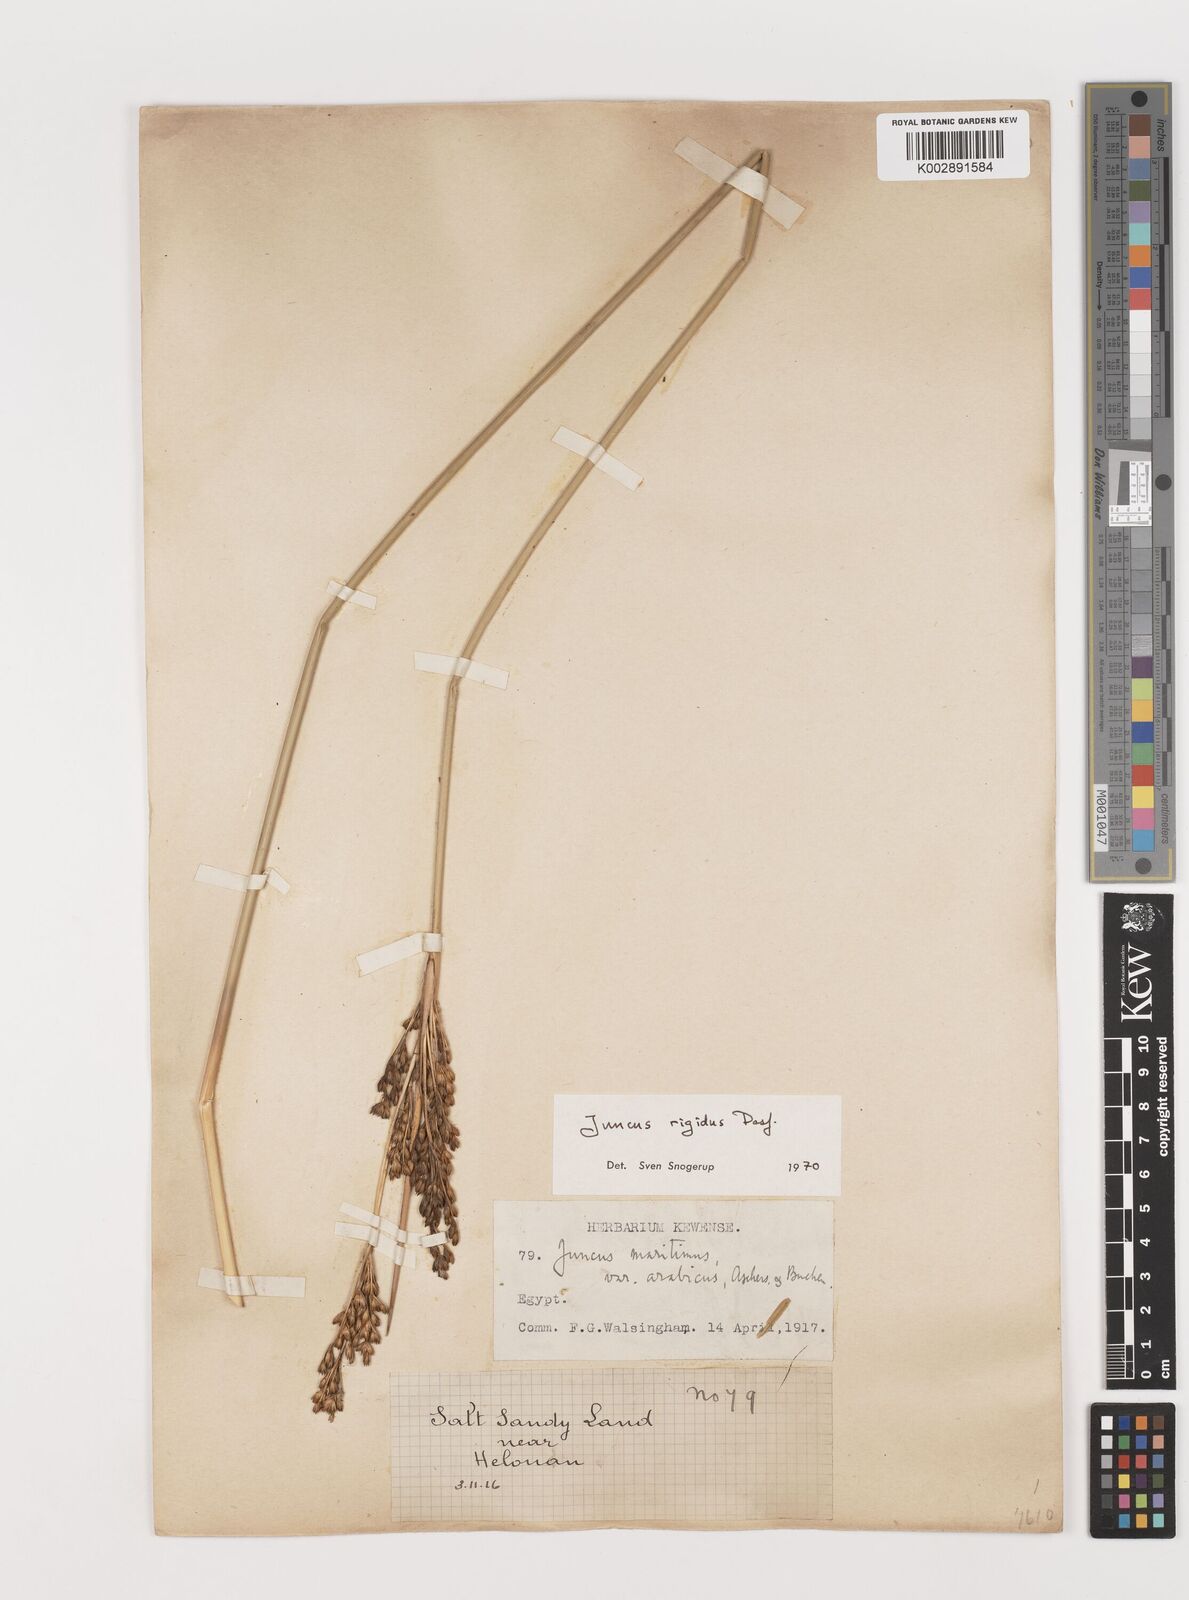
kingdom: Plantae
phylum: Tracheophyta
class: Liliopsida
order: Poales
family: Juncaceae
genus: Juncus
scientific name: Juncus rigidus
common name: Hard sea rush
